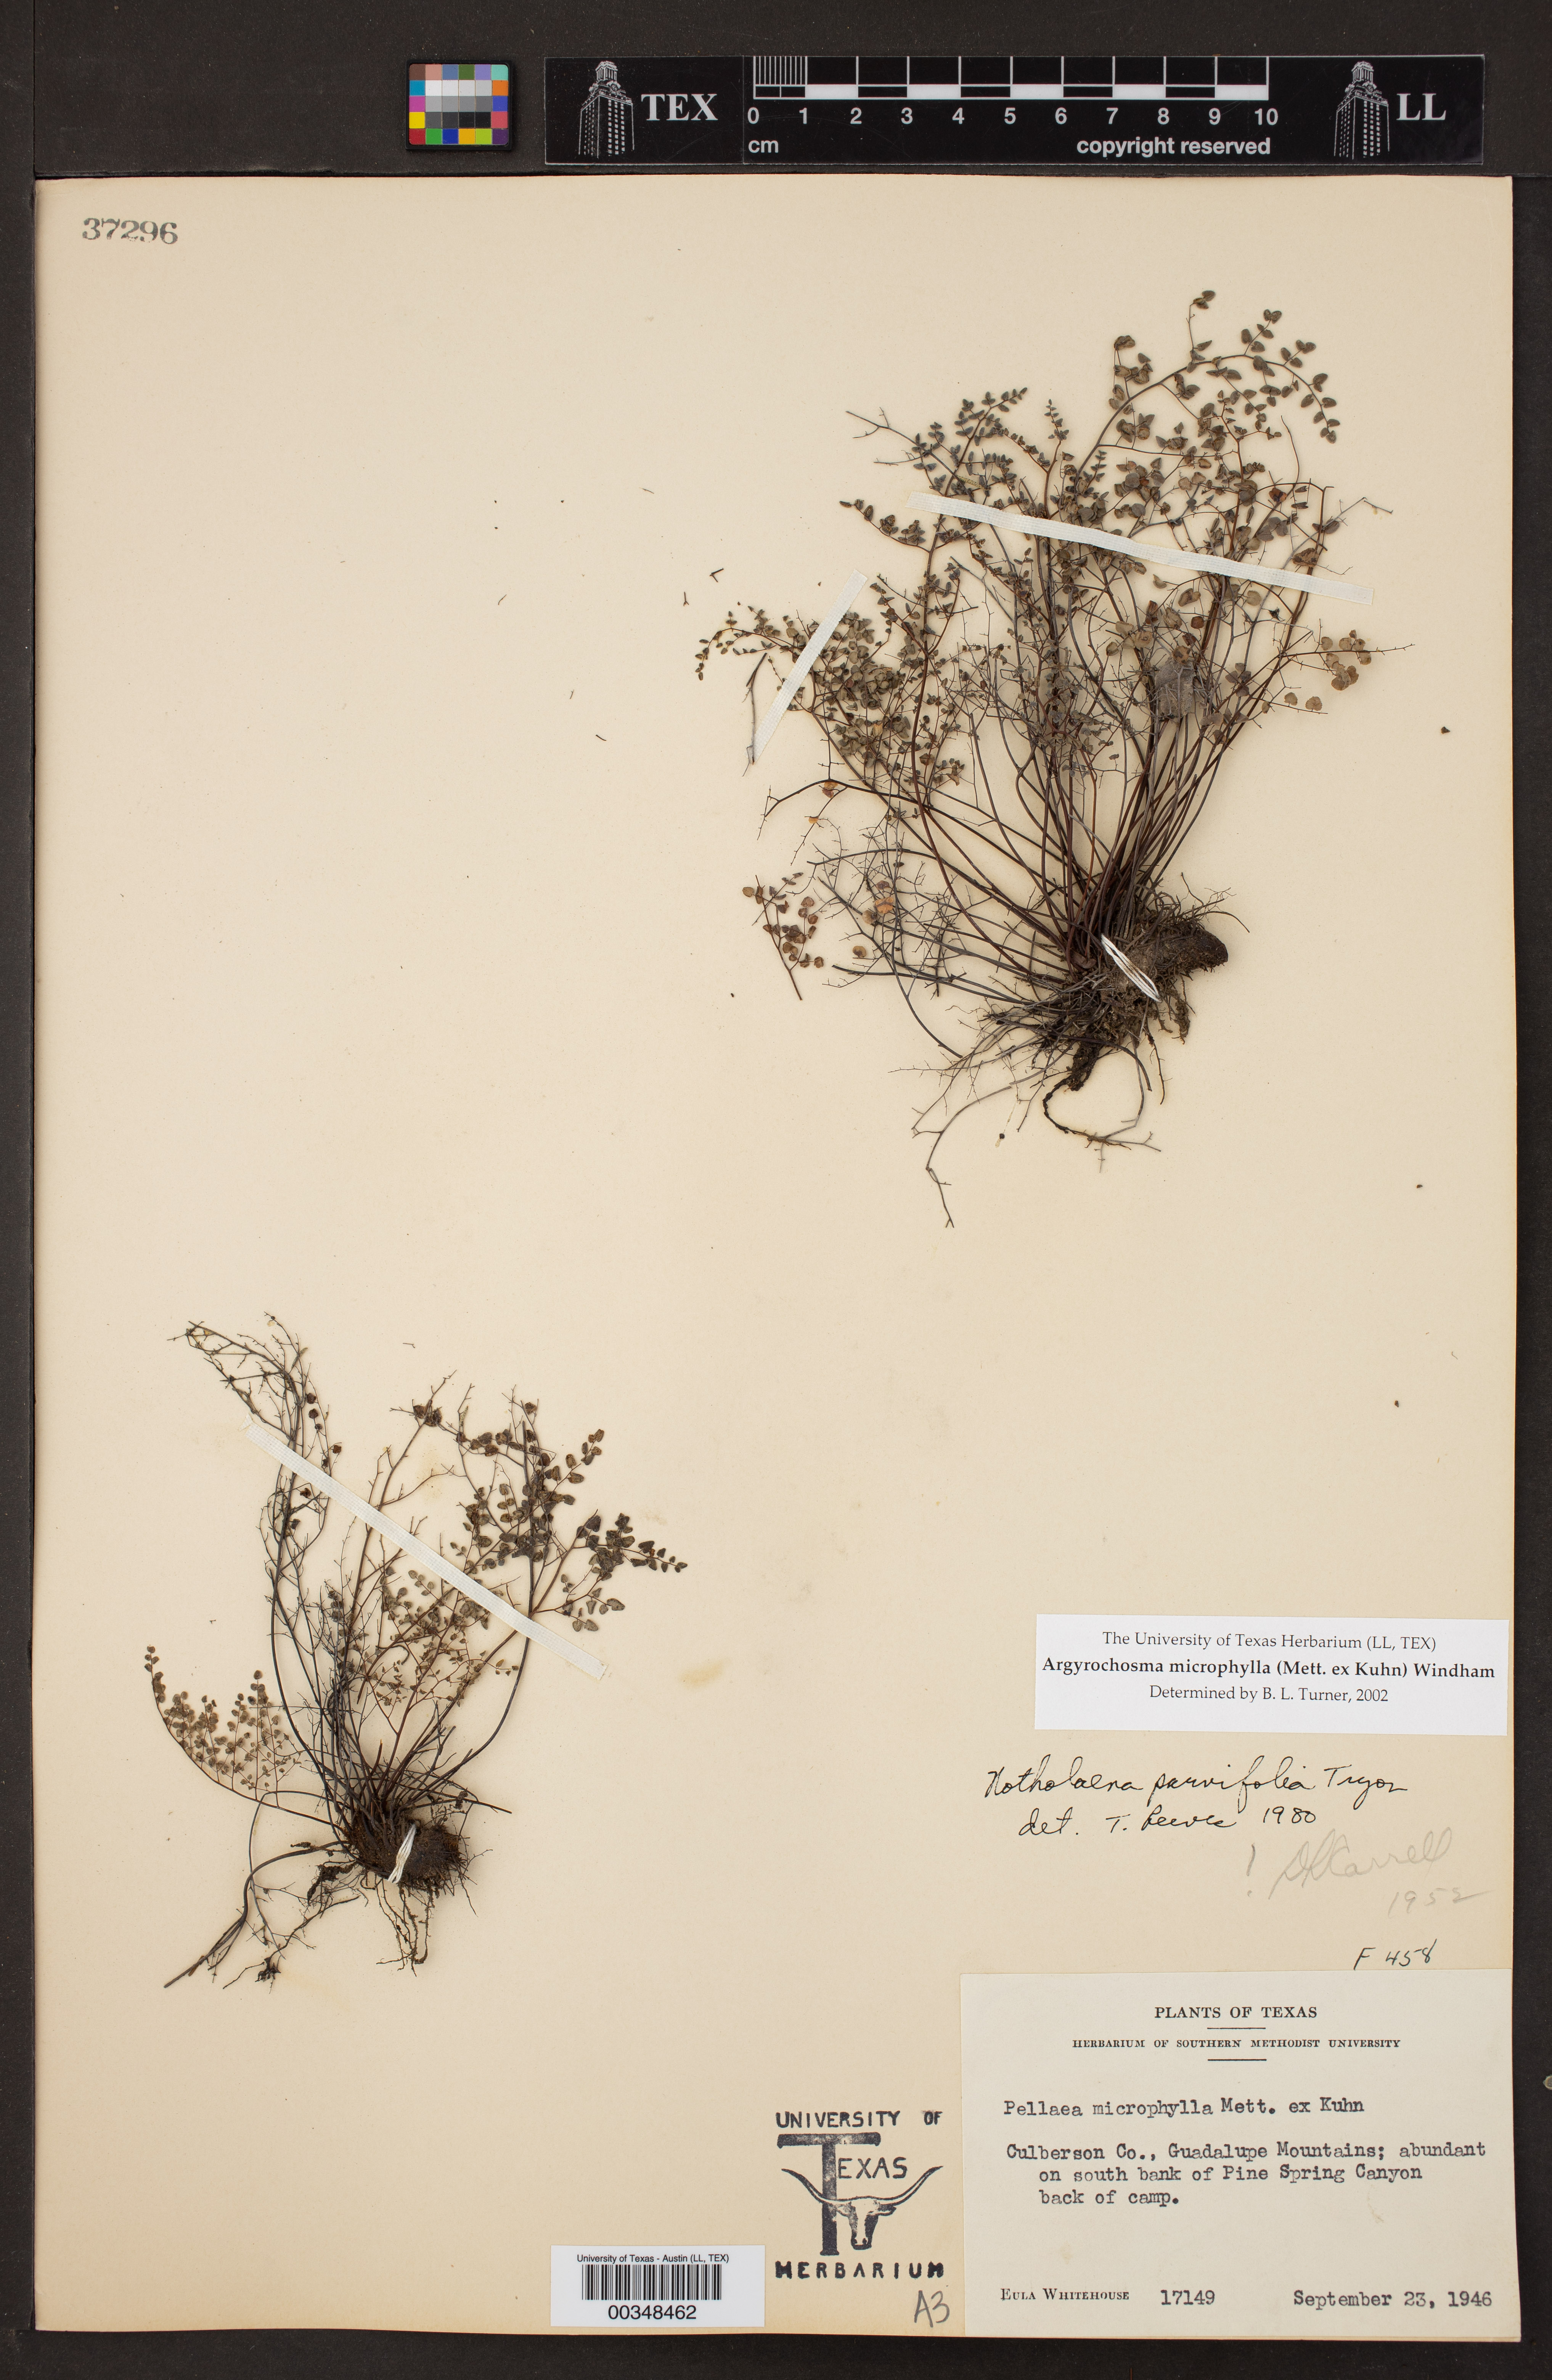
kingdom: Plantae
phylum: Tracheophyta
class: Polypodiopsida
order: Polypodiales
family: Pteridaceae
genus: Argyrochosma
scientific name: Argyrochosma microphylla
